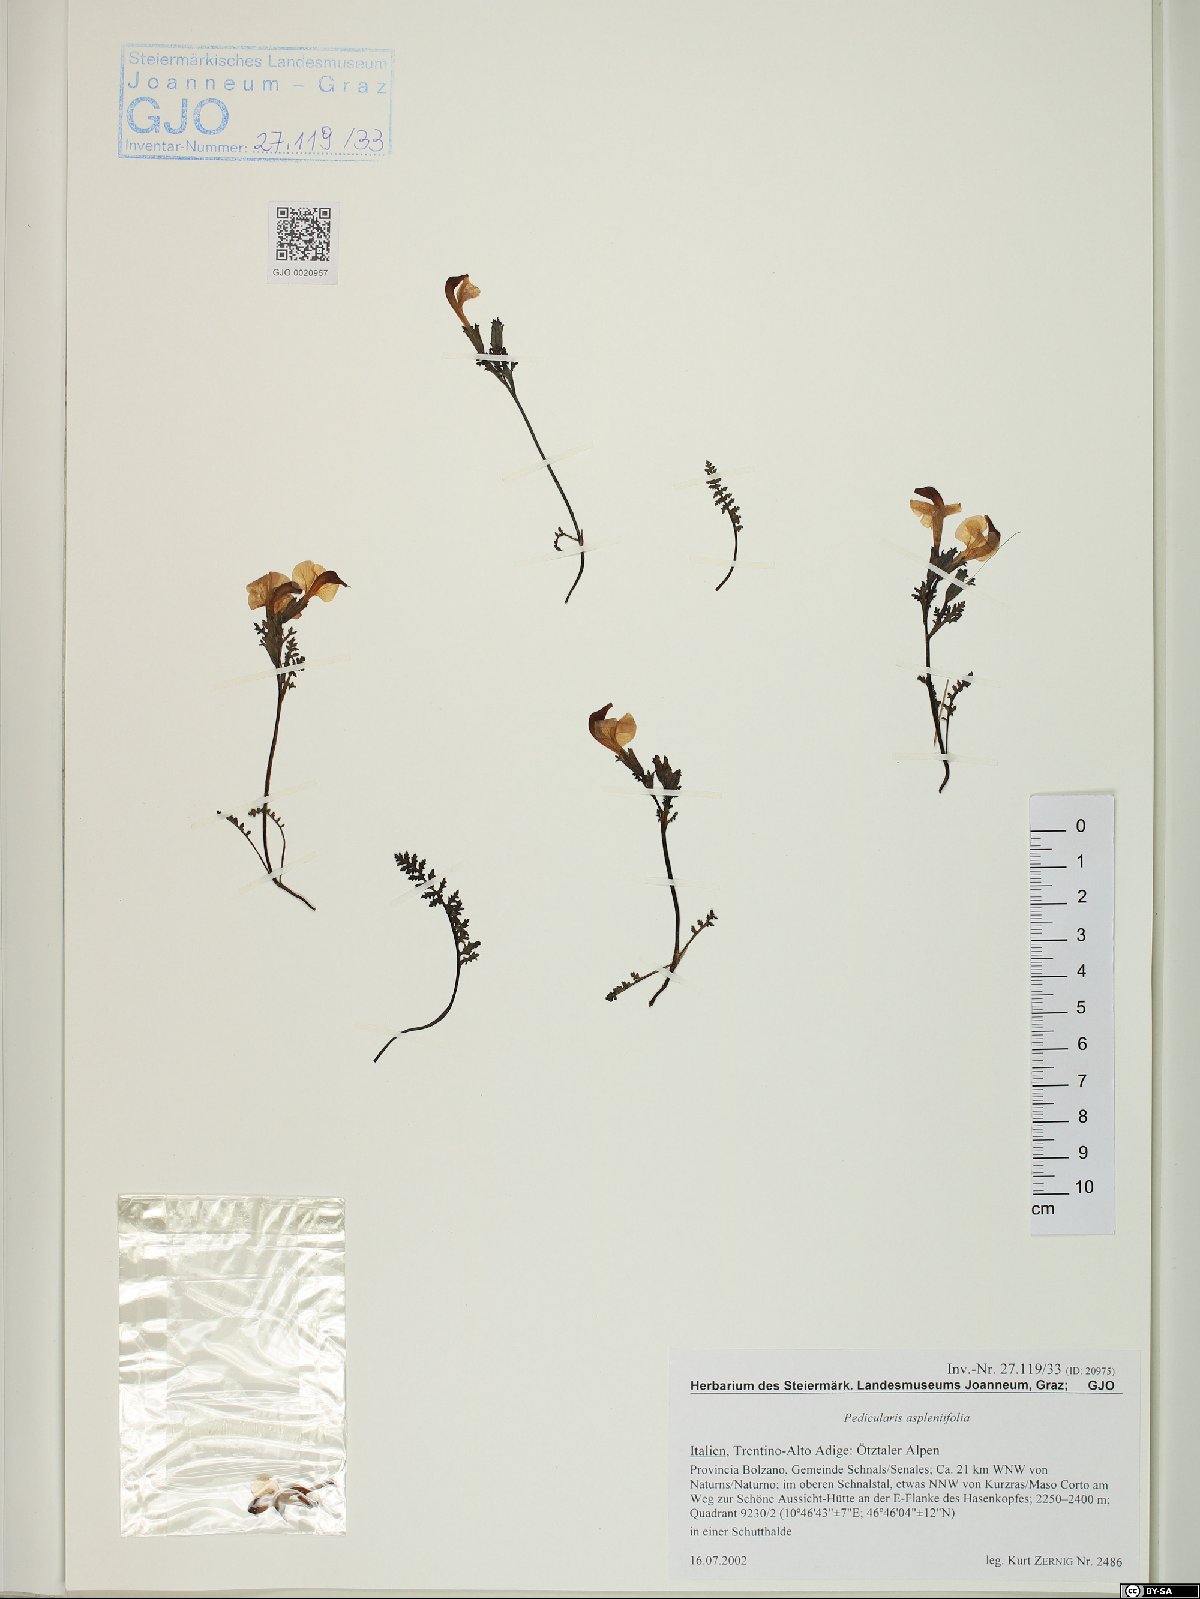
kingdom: Plantae
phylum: Tracheophyta
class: Magnoliopsida
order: Lamiales
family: Orobanchaceae
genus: Pedicularis
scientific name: Pedicularis tuberosa
